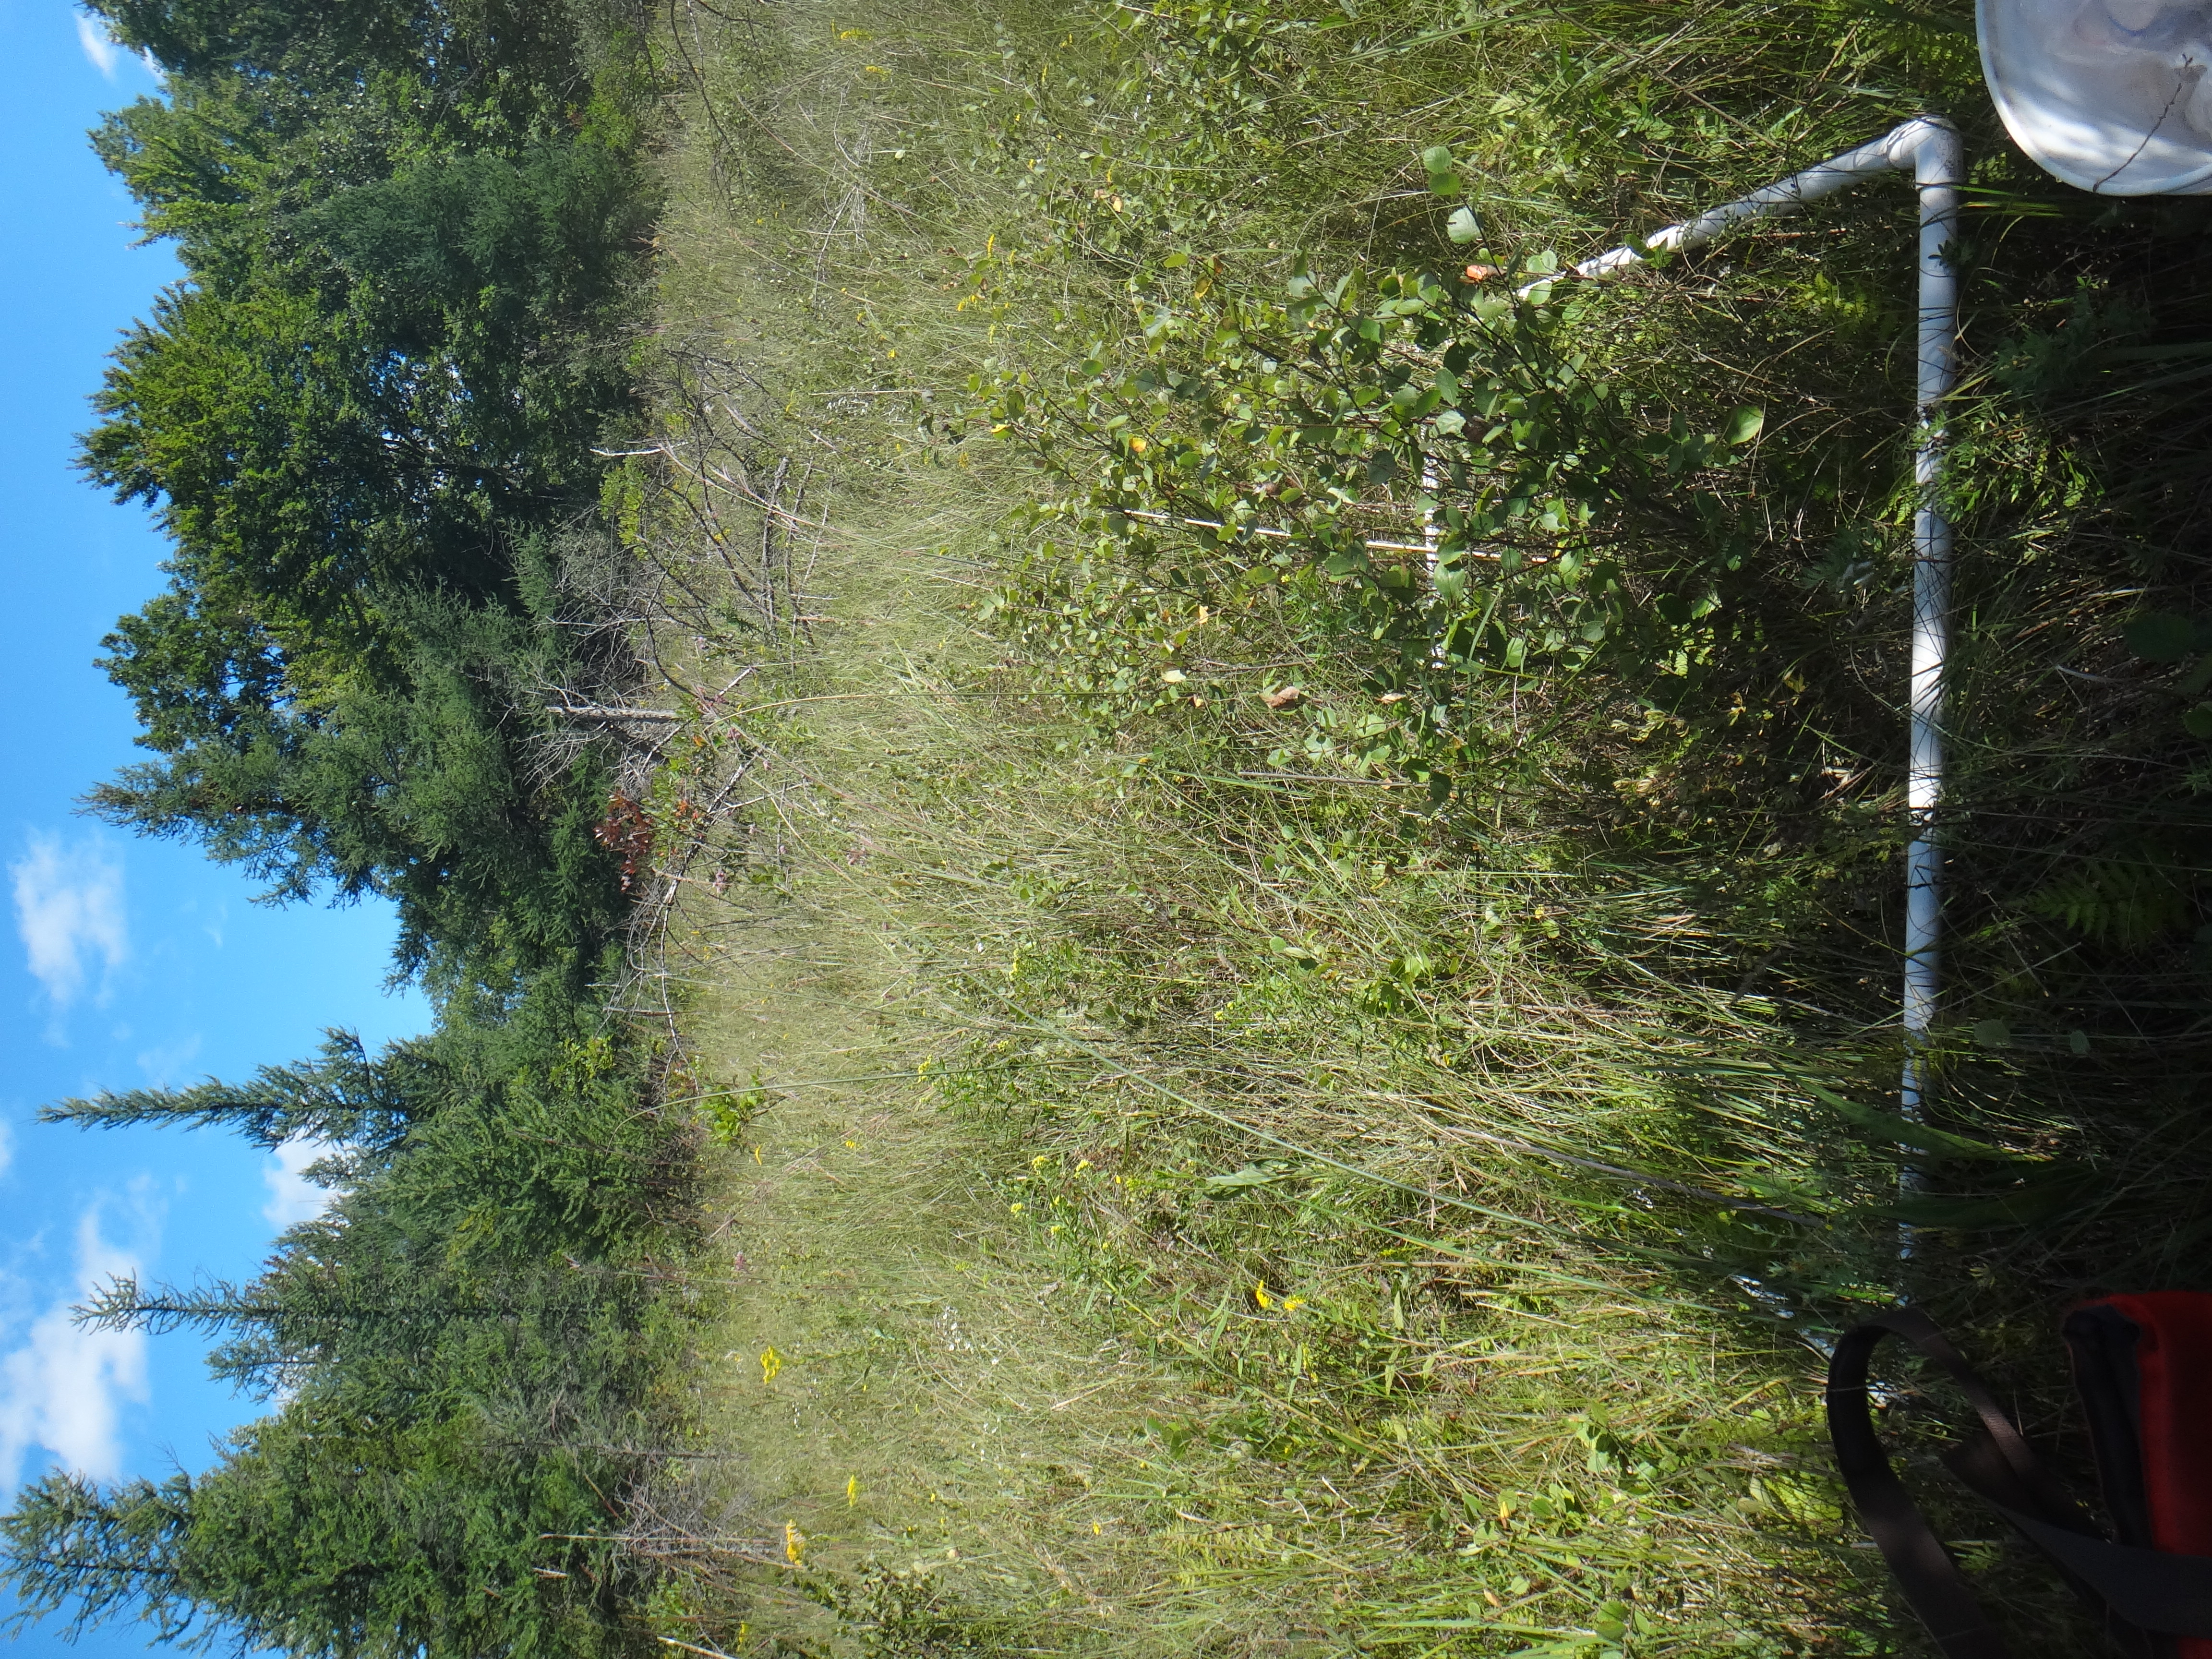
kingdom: Plantae
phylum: Tracheophyta
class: Magnoliopsida
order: Fagales
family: Betulaceae
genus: Betula
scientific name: Betula pumila
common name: Bog birch
